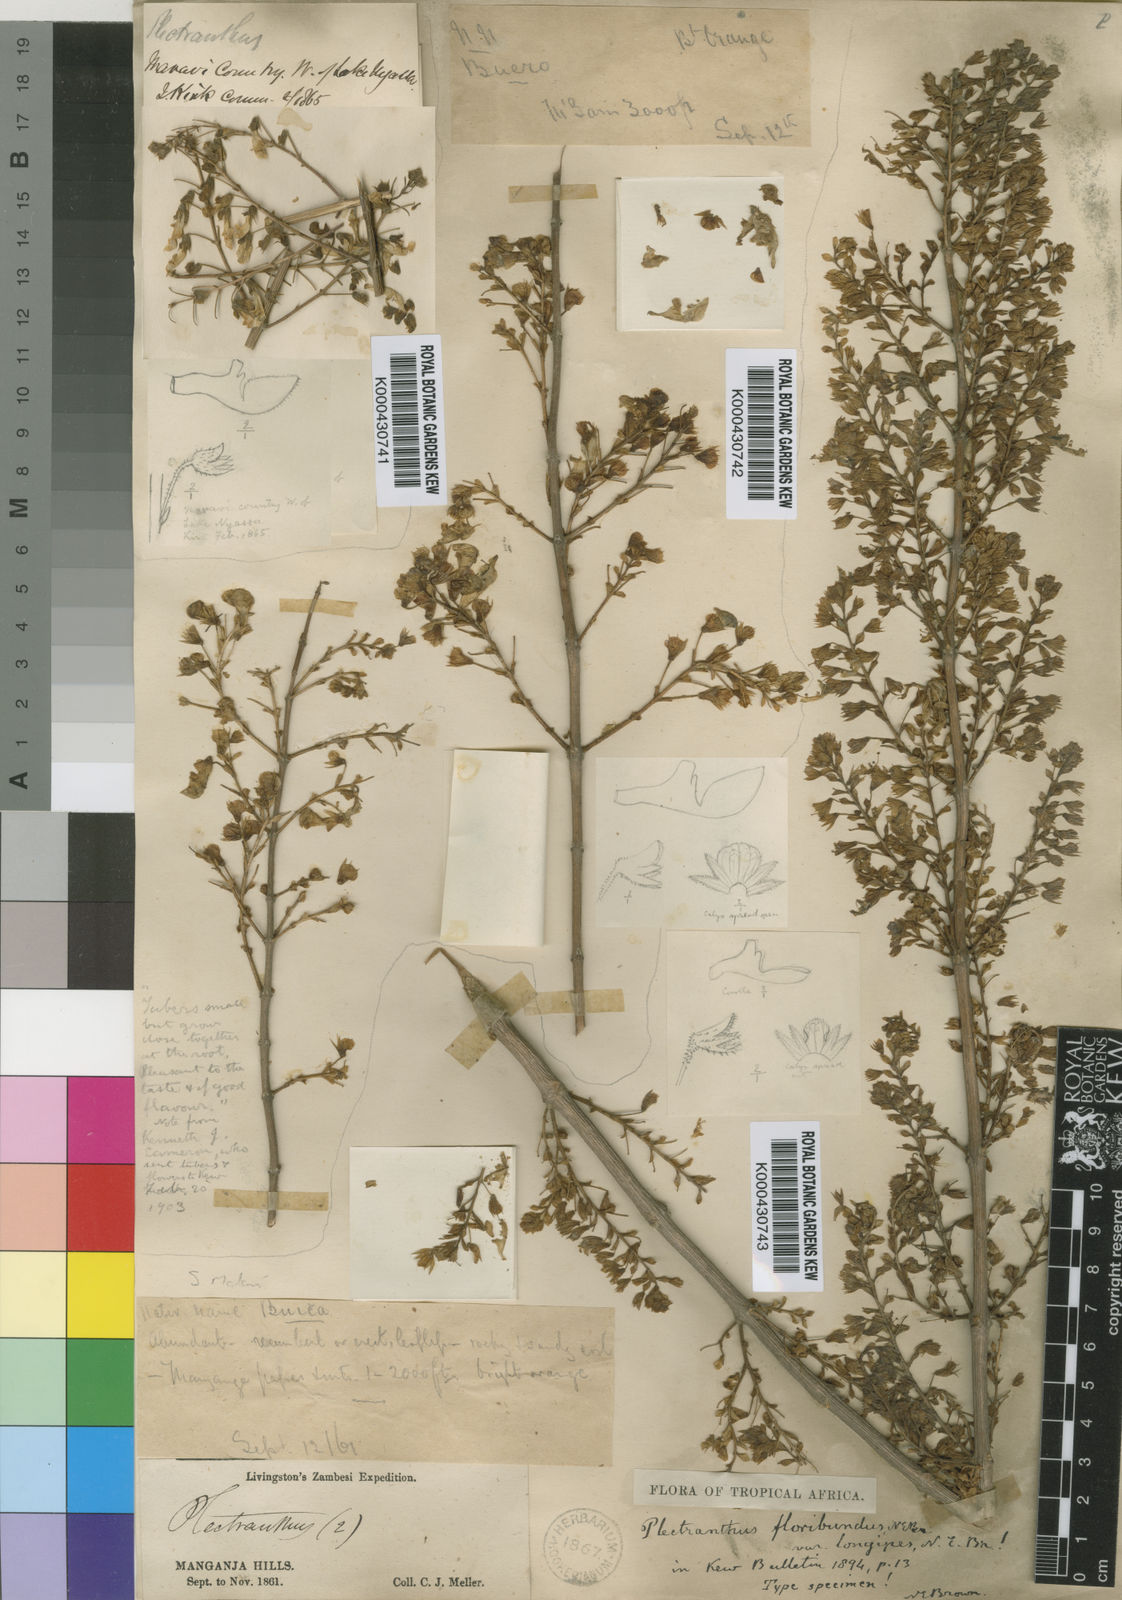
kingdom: Plantae
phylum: Tracheophyta
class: Magnoliopsida
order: Lamiales
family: Lamiaceae
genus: Coleus
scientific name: Coleus esculentus
